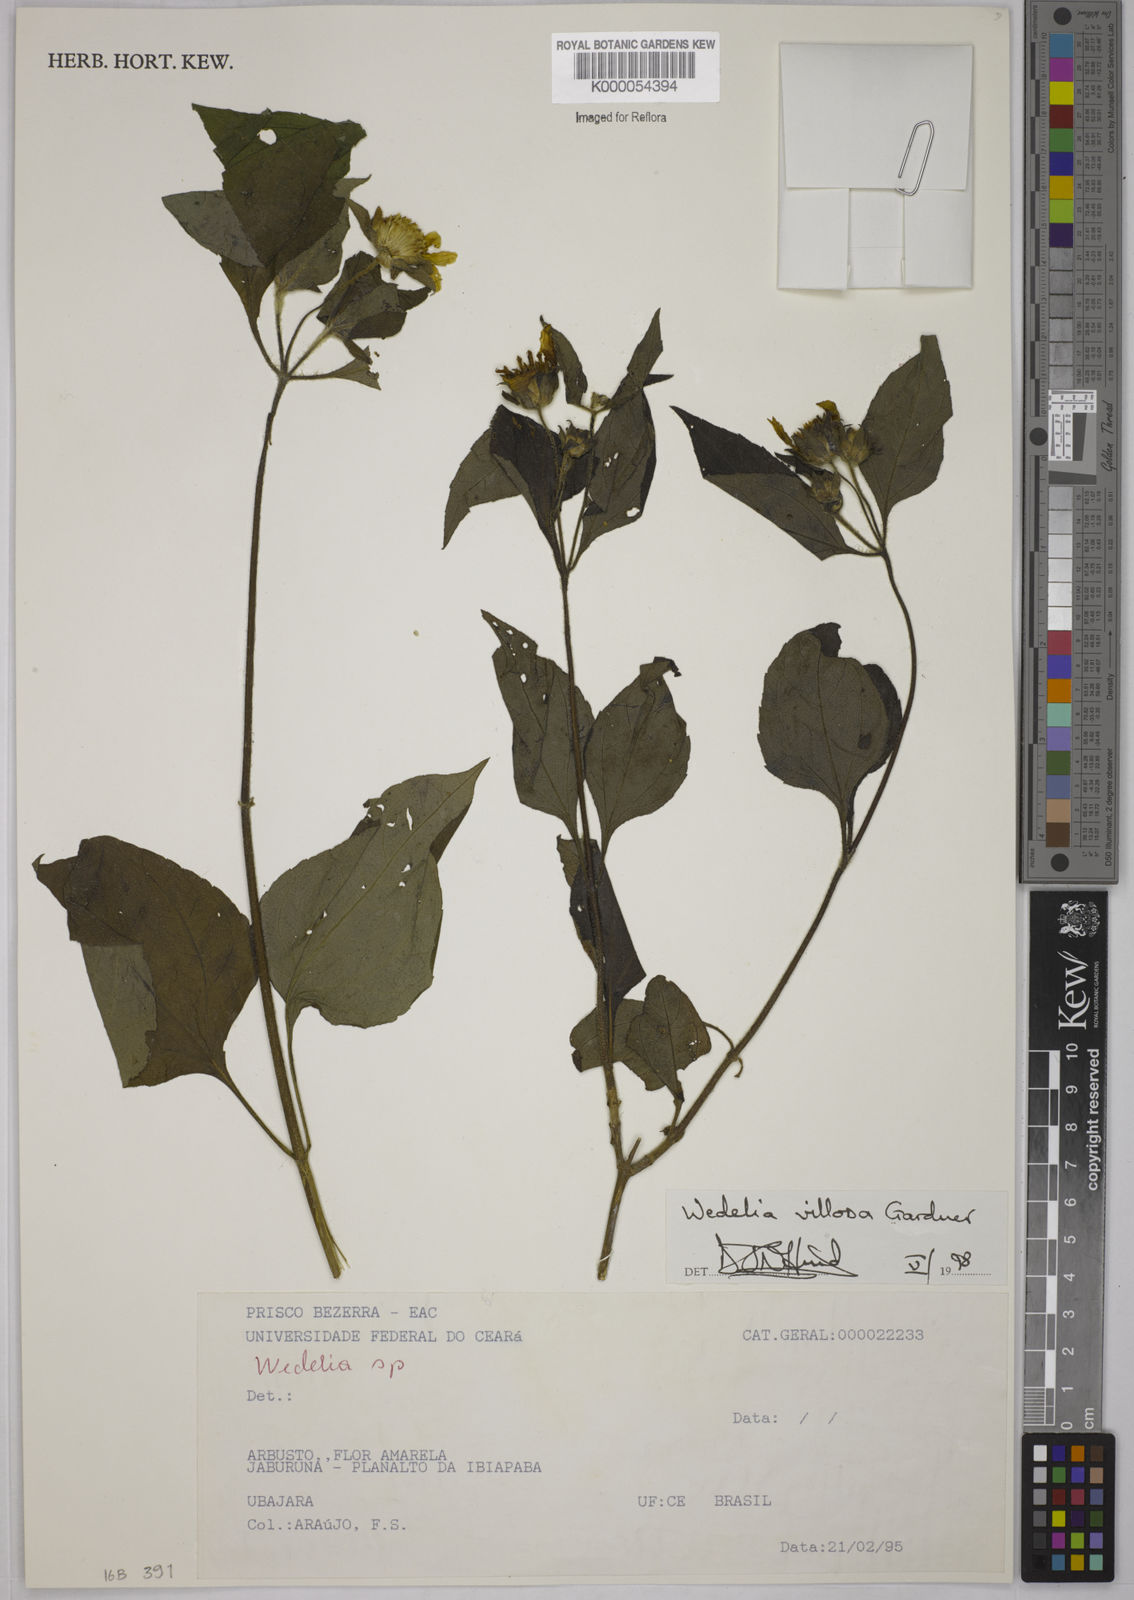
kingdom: Plantae
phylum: Tracheophyta
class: Magnoliopsida
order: Asterales
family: Asteraceae
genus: Wedelia
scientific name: Wedelia villosa
